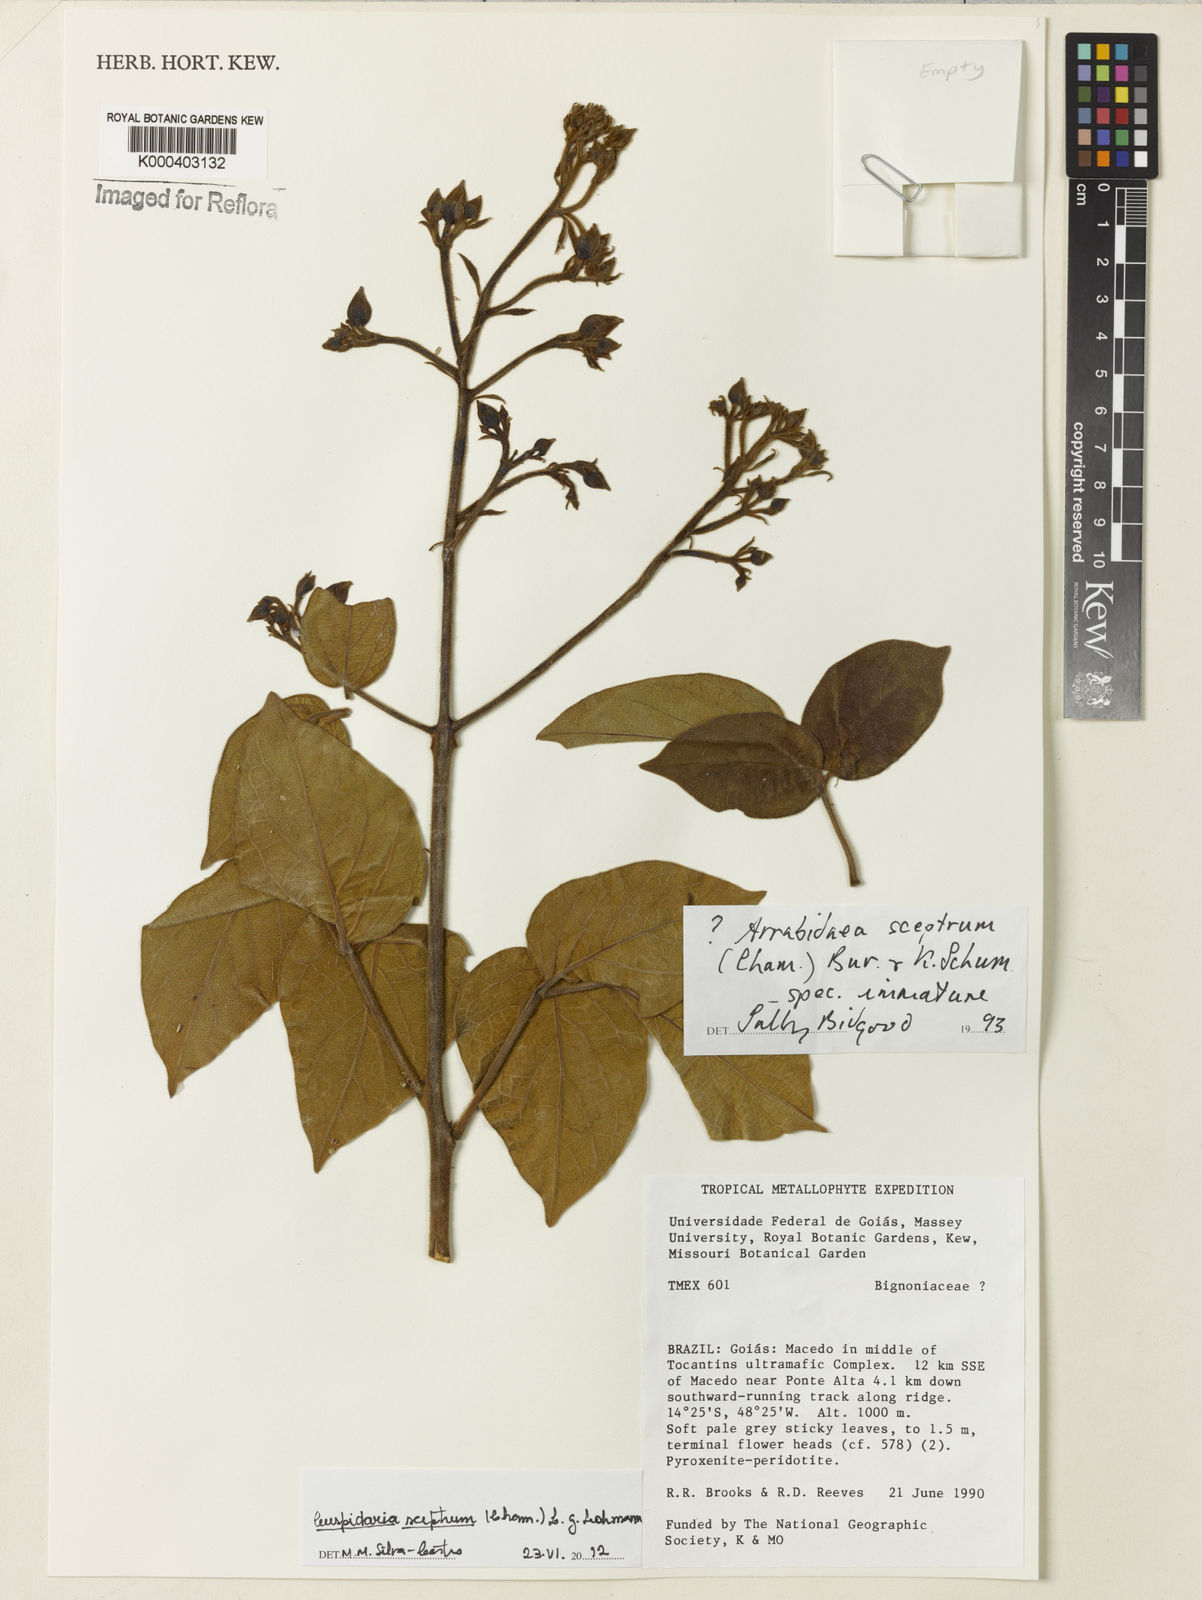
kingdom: Plantae
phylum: Tracheophyta
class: Magnoliopsida
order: Lamiales
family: Bignoniaceae
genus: Cuspidaria
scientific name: Cuspidaria sceptrum
